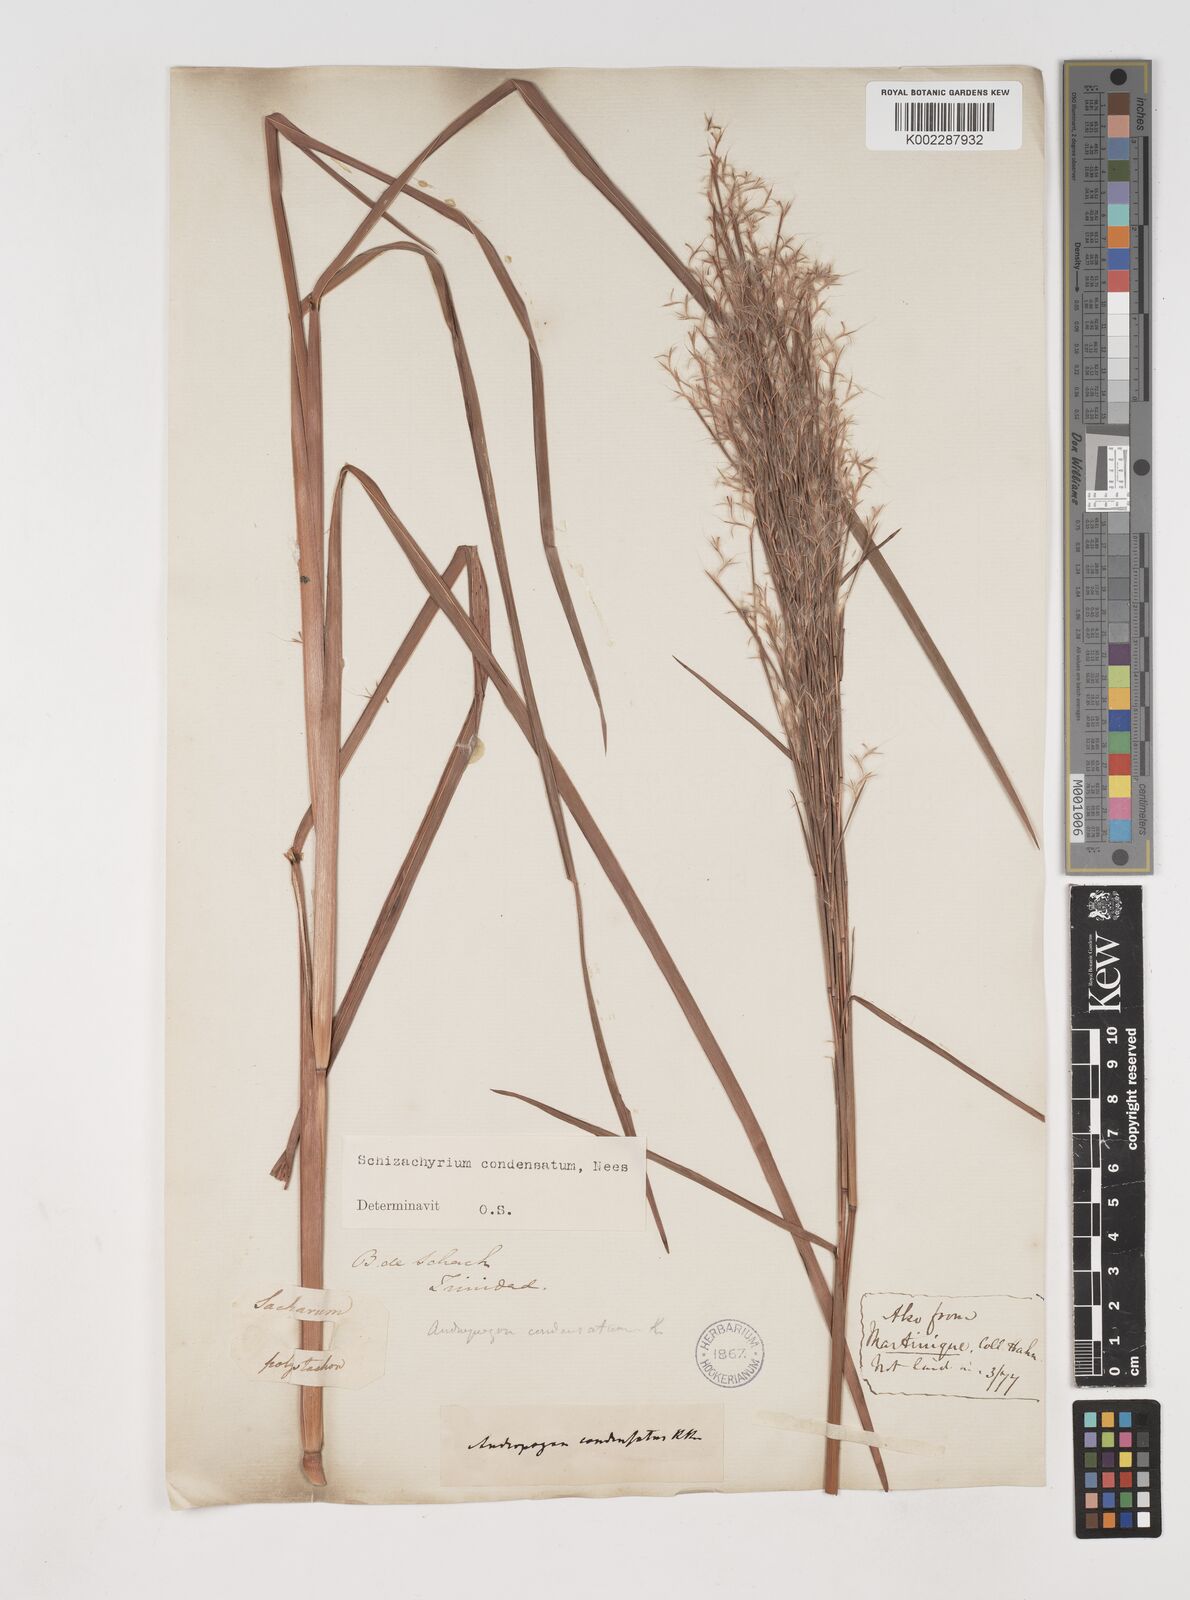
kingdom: Plantae
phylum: Tracheophyta
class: Liliopsida
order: Poales
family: Poaceae
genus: Schizachyrium
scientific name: Schizachyrium condensatum
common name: Bush beardgrass
